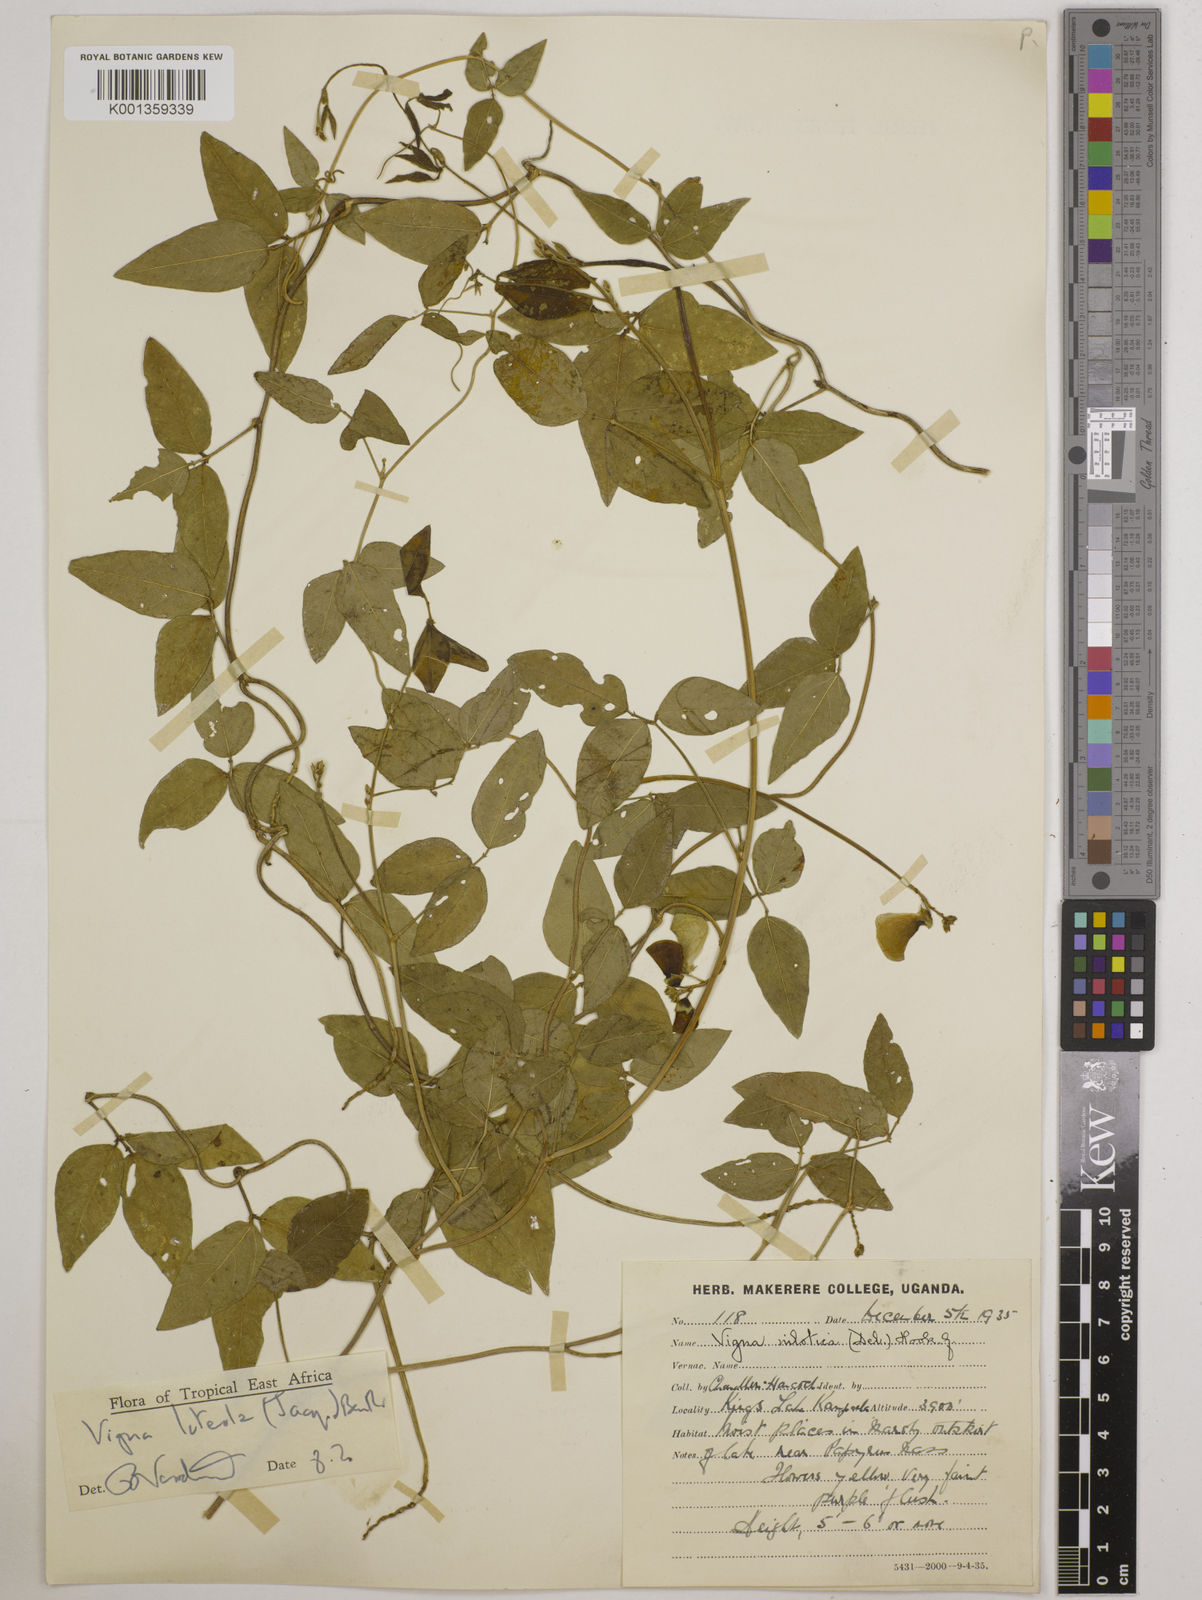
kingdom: Plantae
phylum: Tracheophyta
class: Magnoliopsida
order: Fabales
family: Fabaceae
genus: Vigna
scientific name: Vigna luteola
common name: Hairypod cowpea
